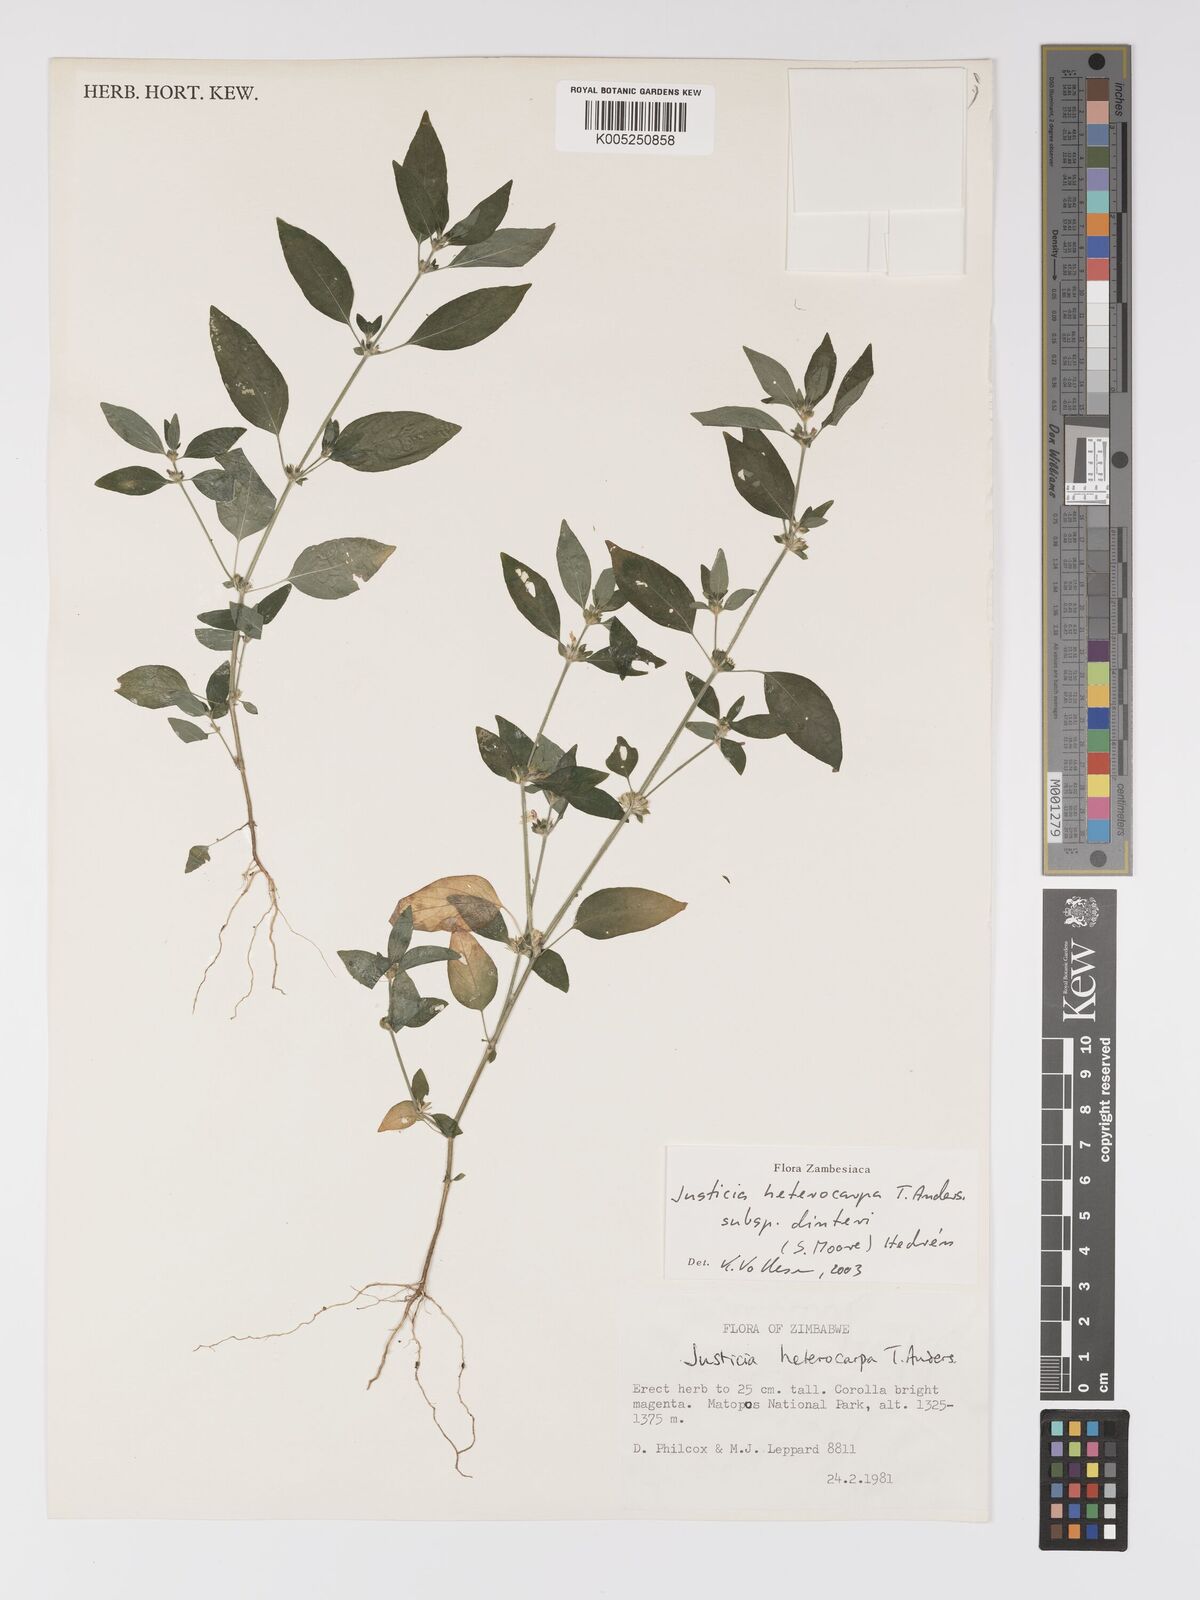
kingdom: Plantae
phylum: Tracheophyta
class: Magnoliopsida
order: Lamiales
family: Acanthaceae
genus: Justicia
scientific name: Justicia heterocarpa
